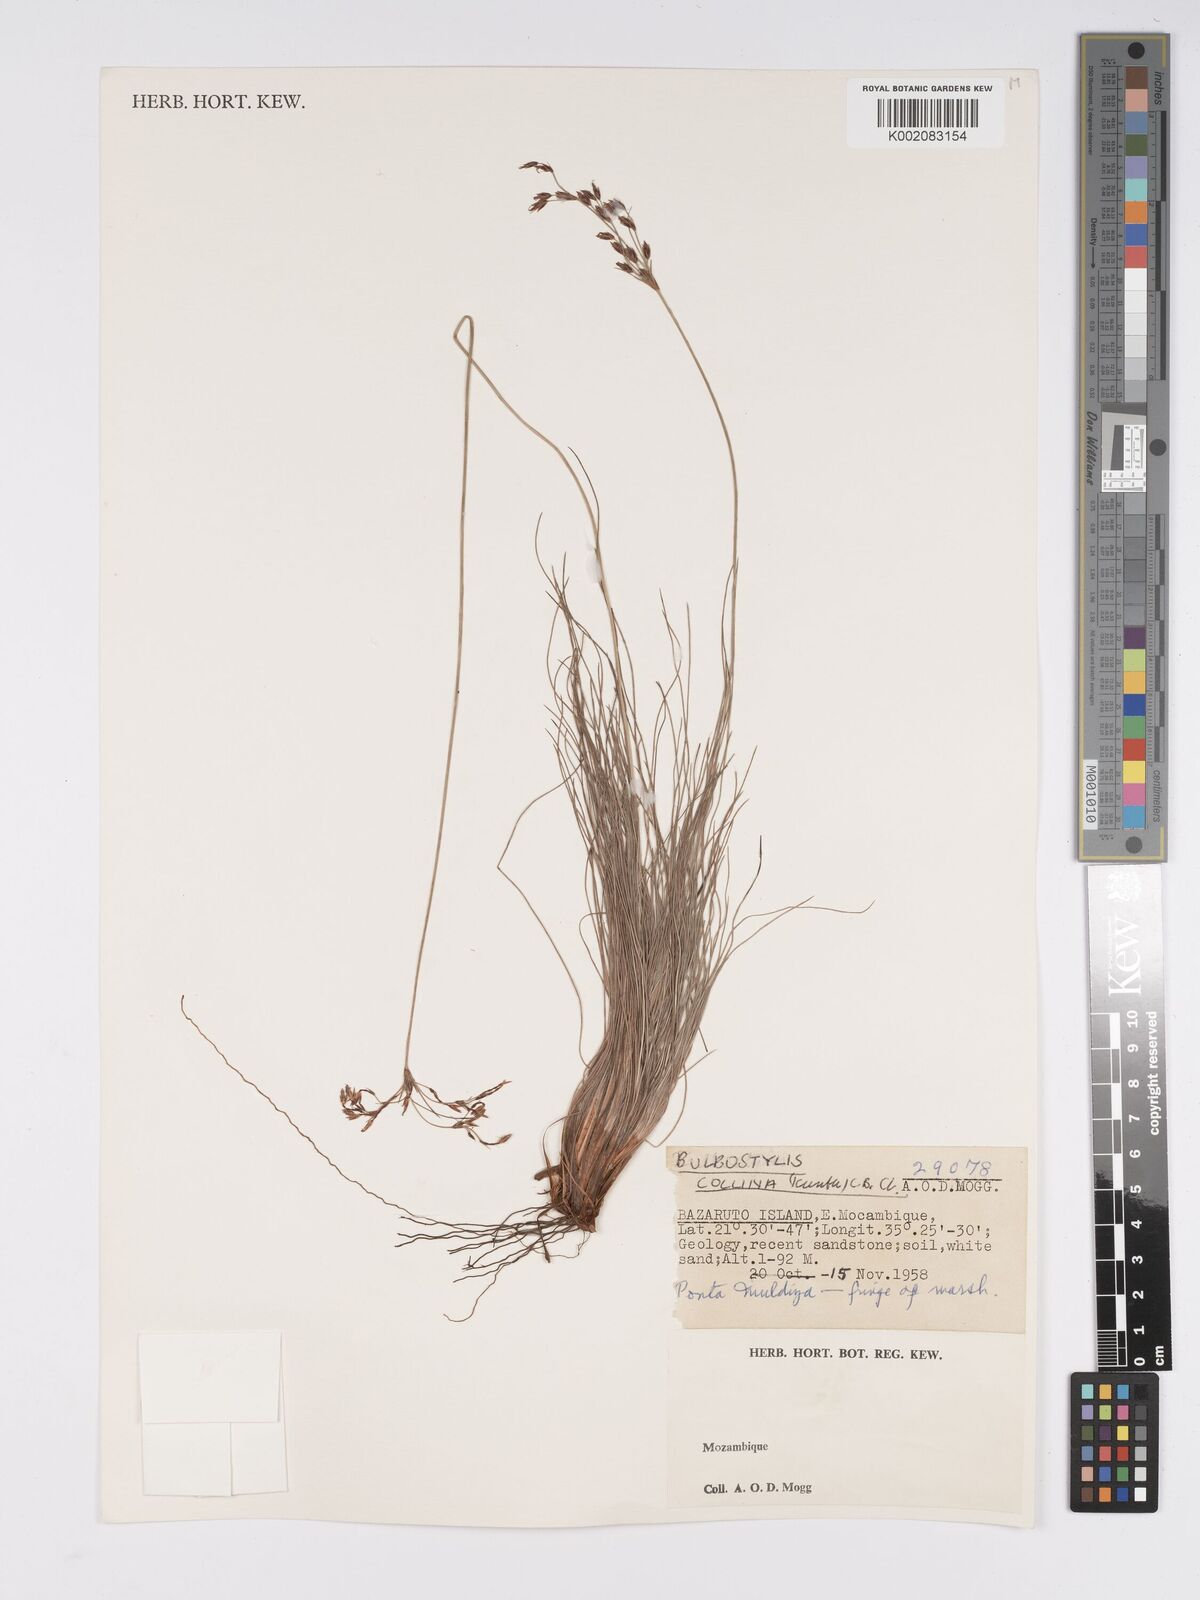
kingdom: Plantae
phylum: Tracheophyta
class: Liliopsida
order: Poales
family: Cyperaceae
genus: Bulbostylis
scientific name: Bulbostylis contexta
